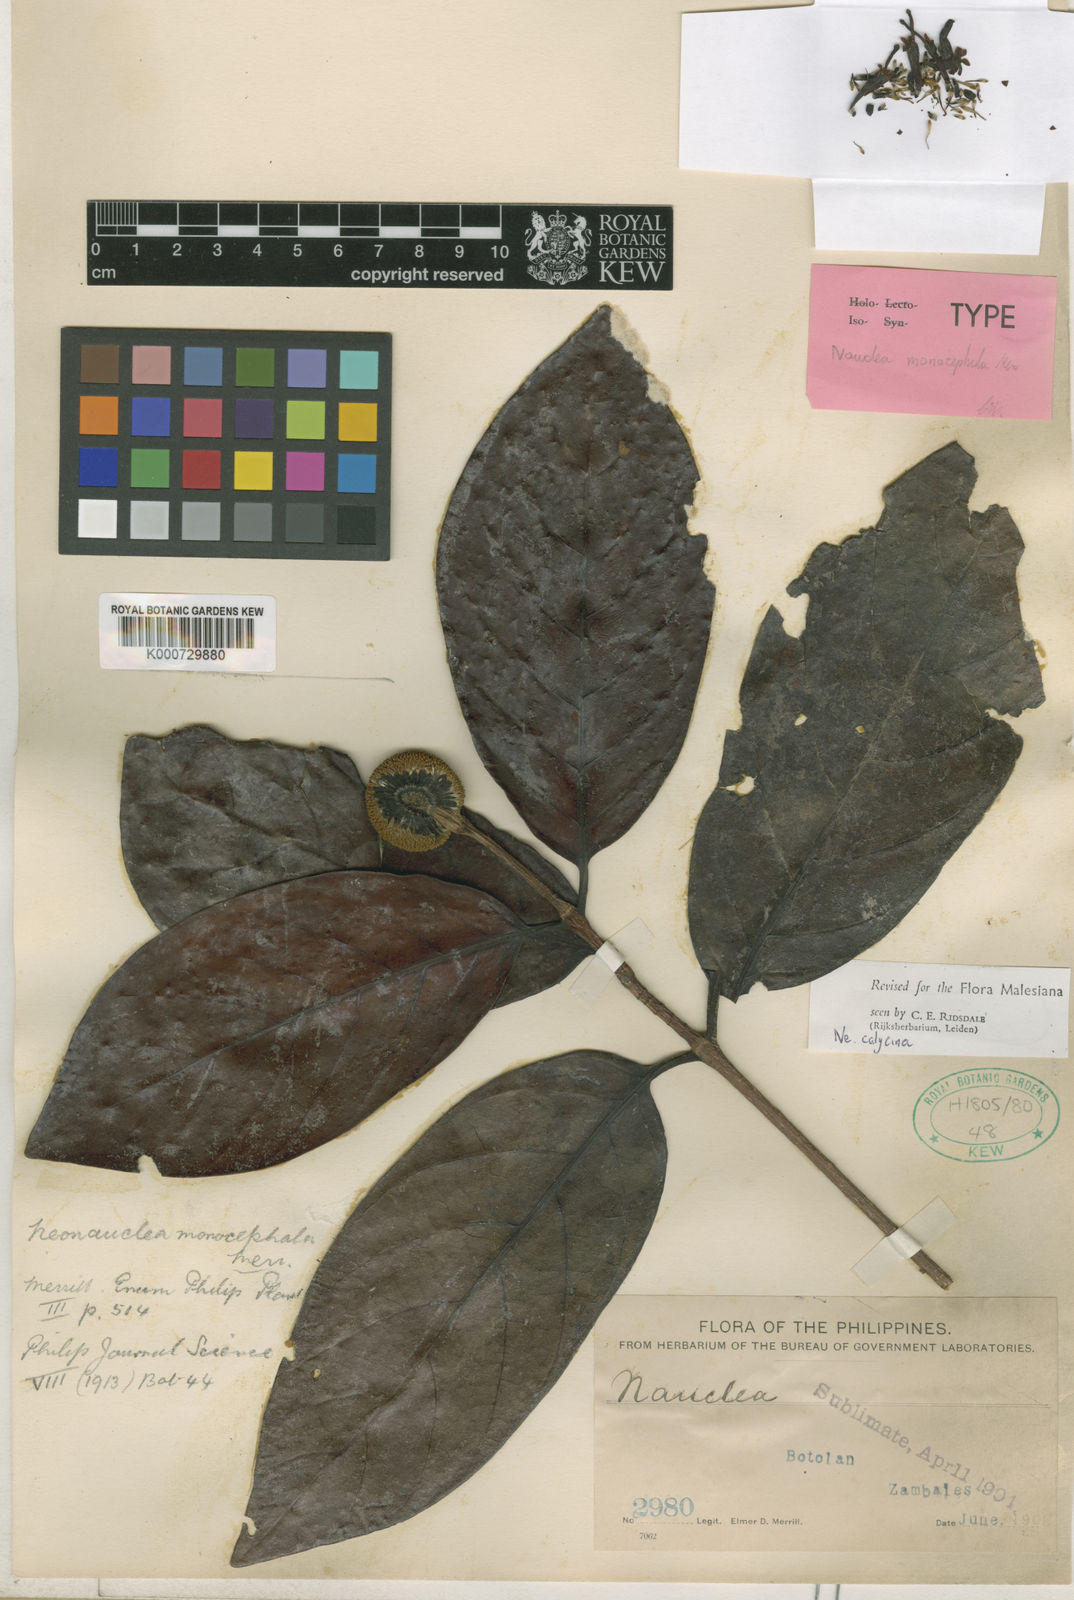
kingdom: Plantae
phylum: Tracheophyta
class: Magnoliopsida
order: Gentianales
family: Rubiaceae
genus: Neonauclea
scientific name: Neonauclea calycina
